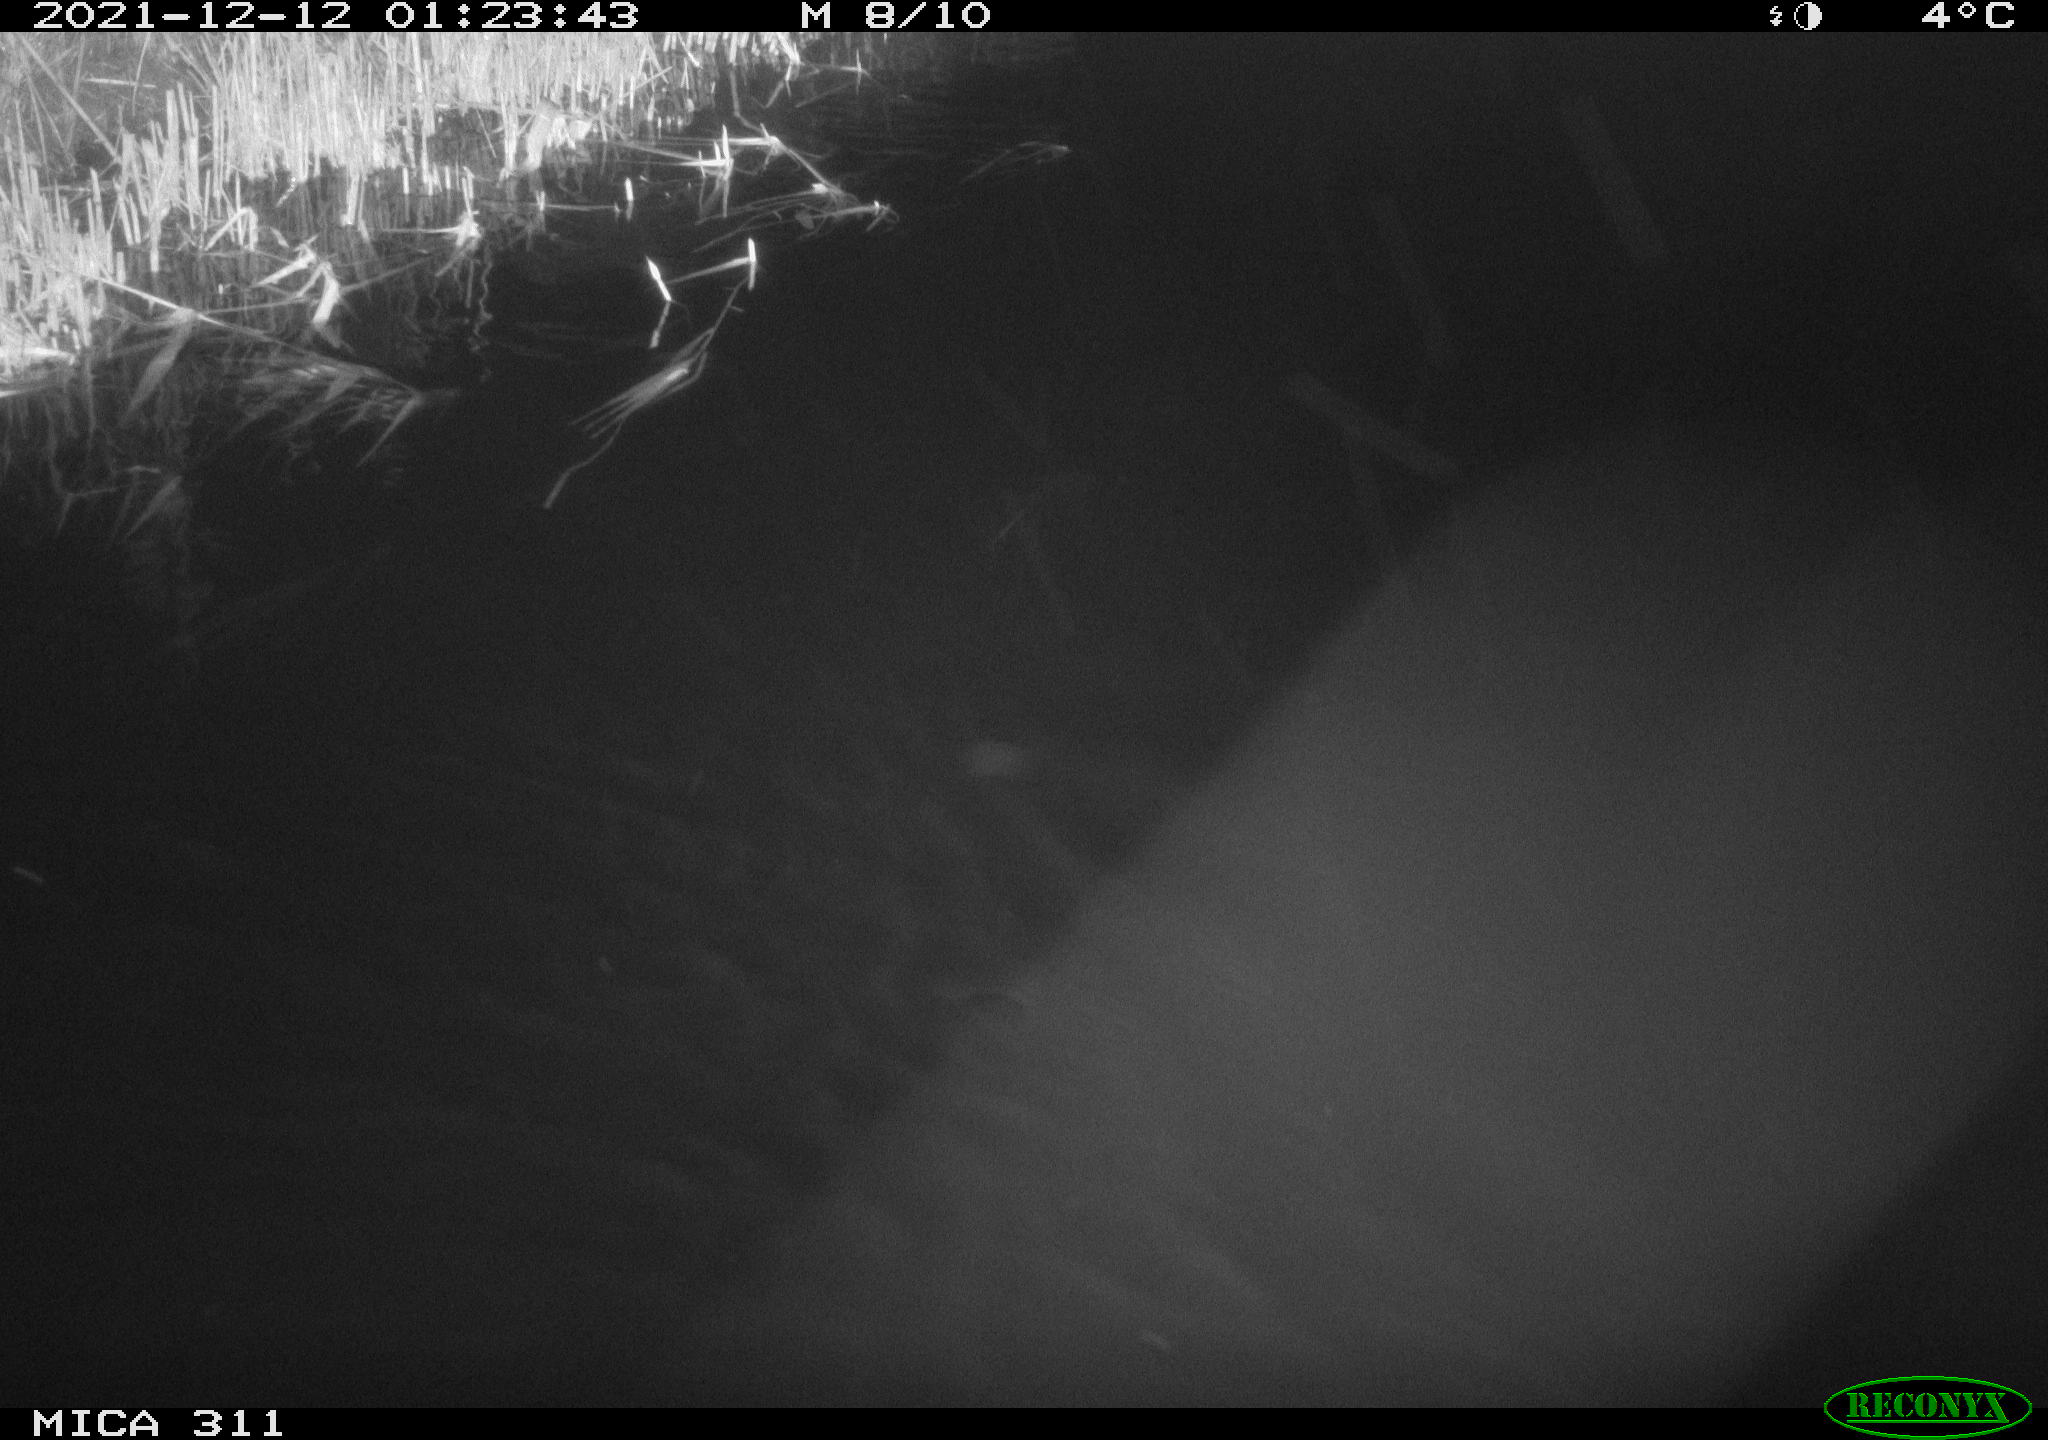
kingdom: Animalia
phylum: Chordata
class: Mammalia
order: Rodentia
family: Cricetidae
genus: Ondatra
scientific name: Ondatra zibethicus
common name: Muskrat
